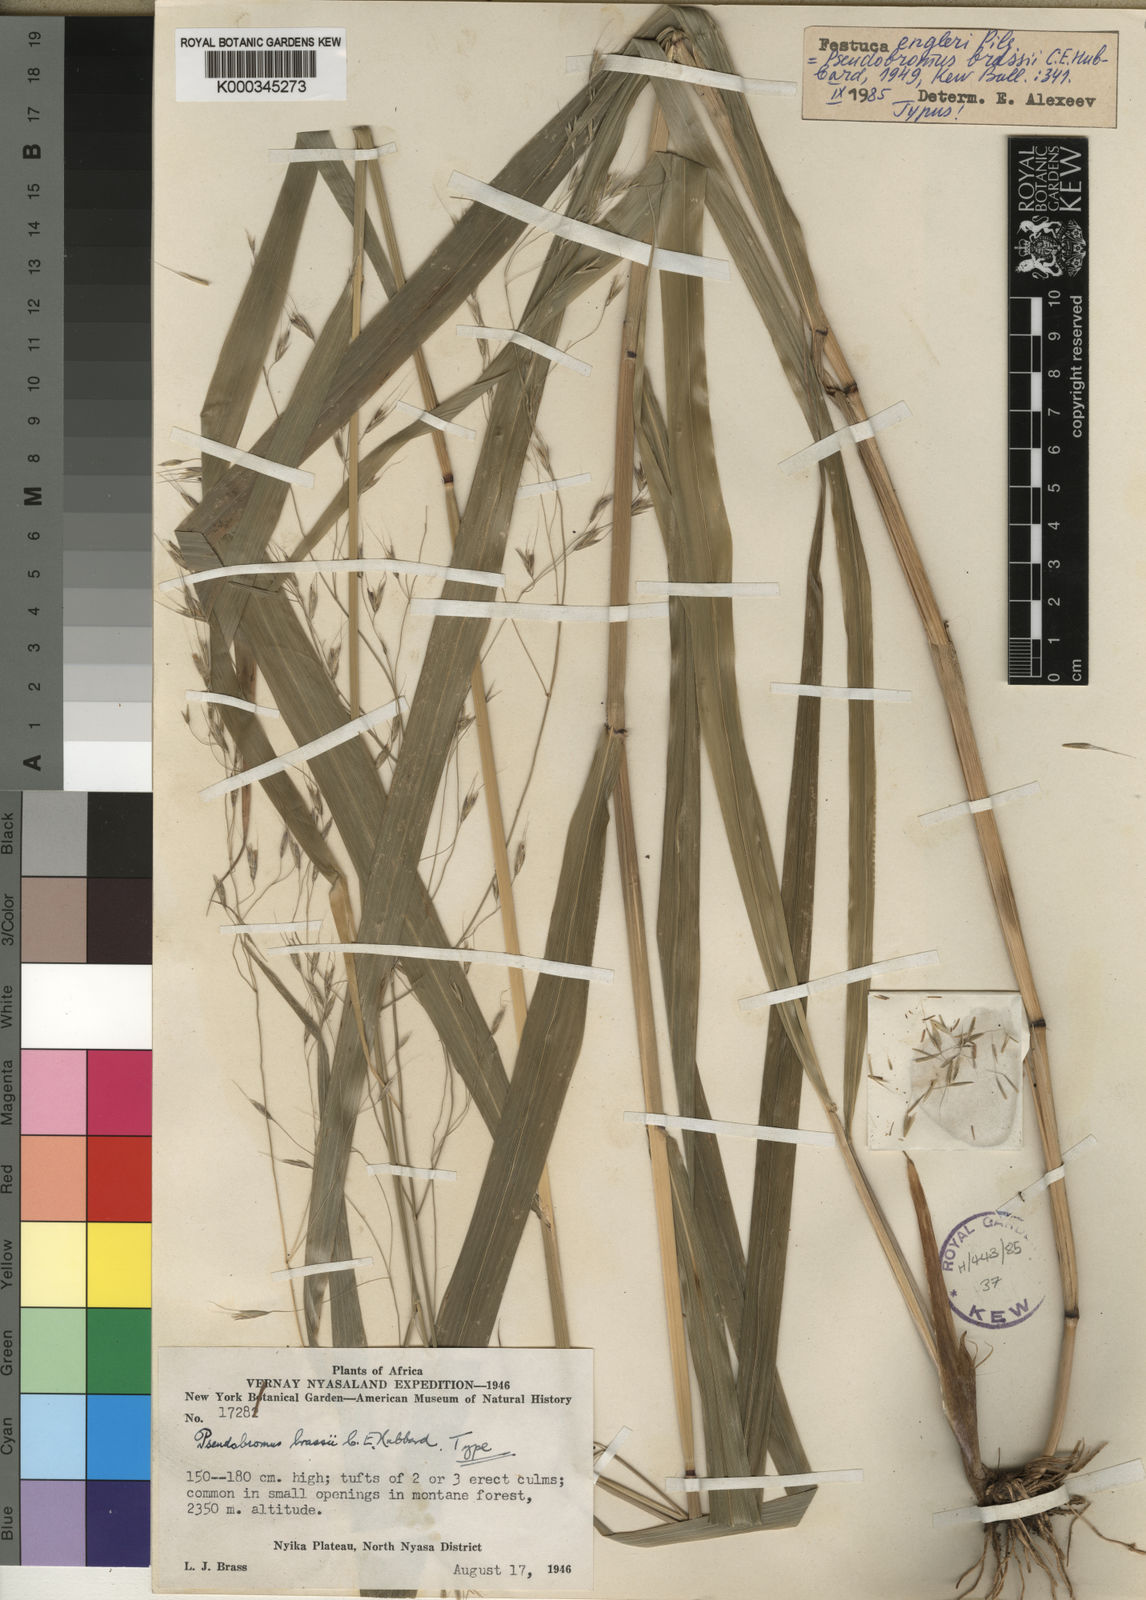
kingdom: Plantae
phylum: Tracheophyta
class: Liliopsida
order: Poales
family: Poaceae
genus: Pseudobromus
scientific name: Pseudobromus engleri
